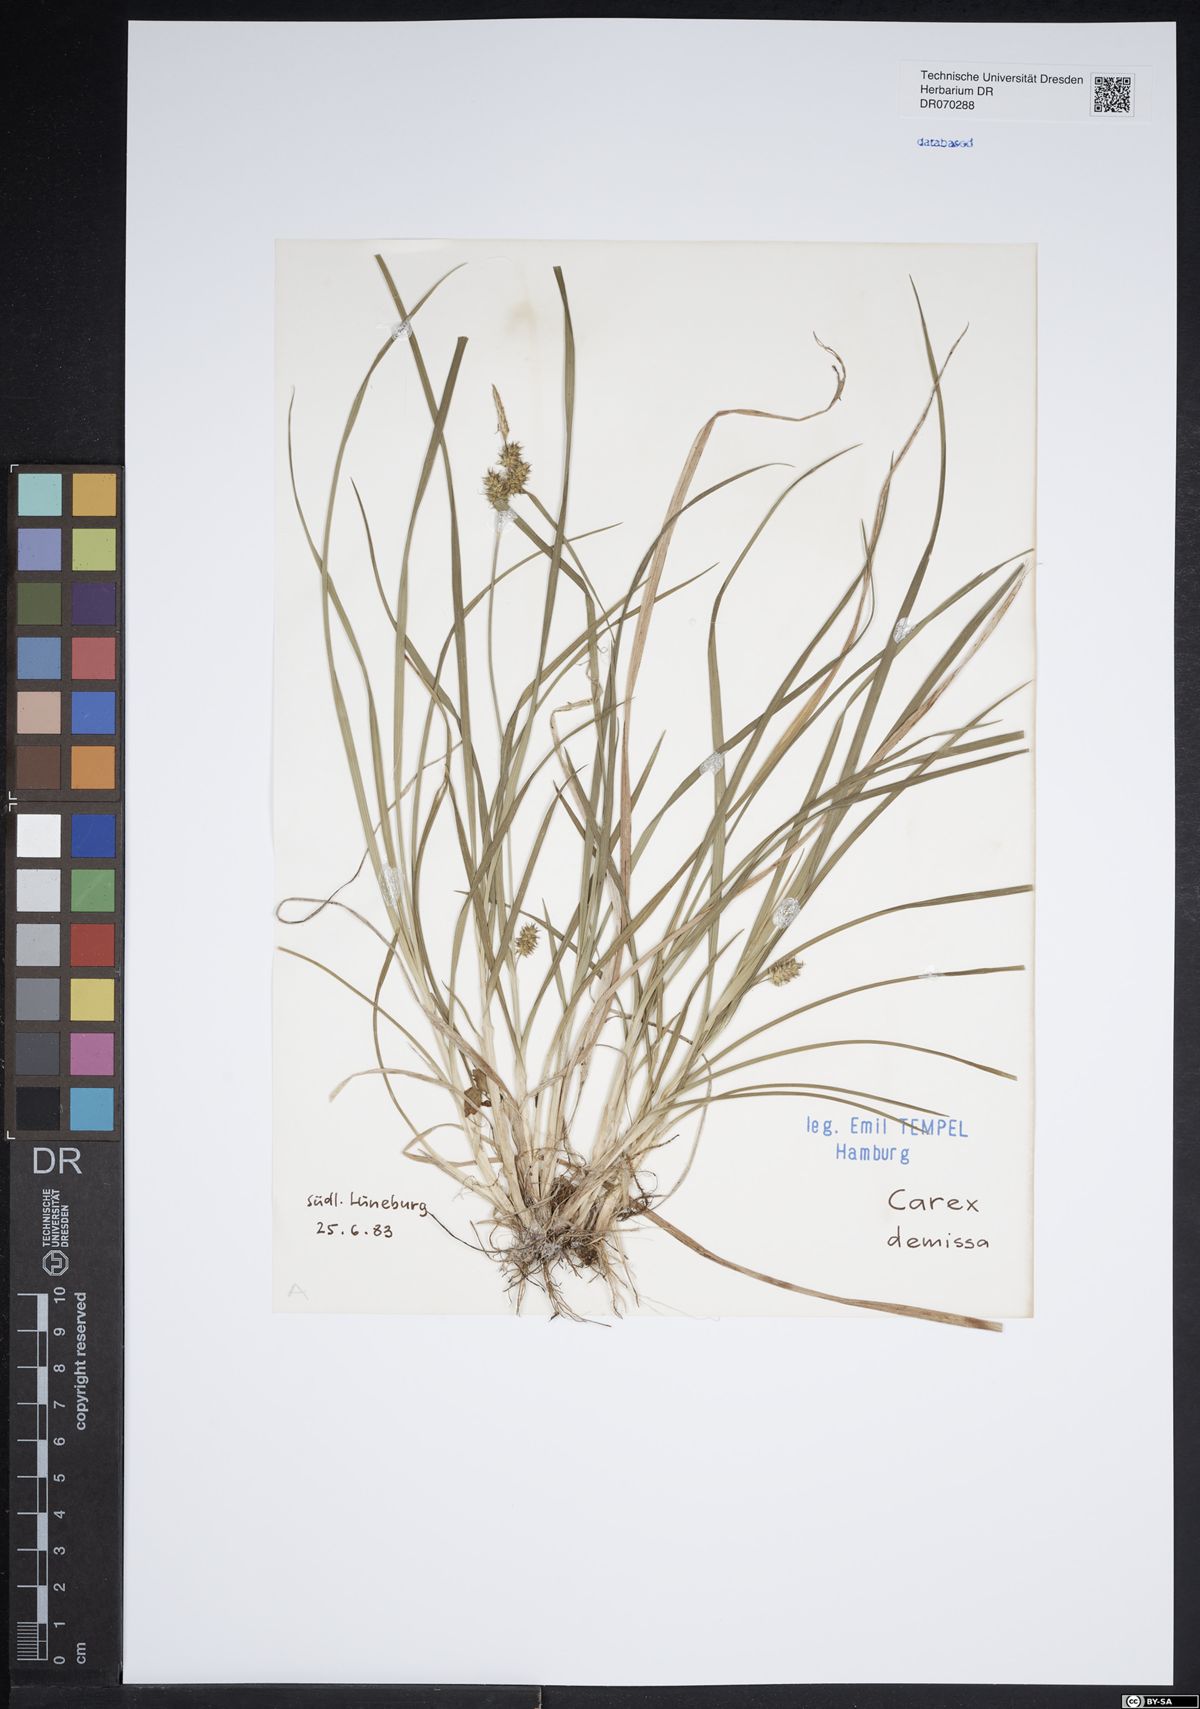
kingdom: Plantae
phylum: Tracheophyta
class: Liliopsida
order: Poales
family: Cyperaceae
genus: Carex
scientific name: Carex demissa
